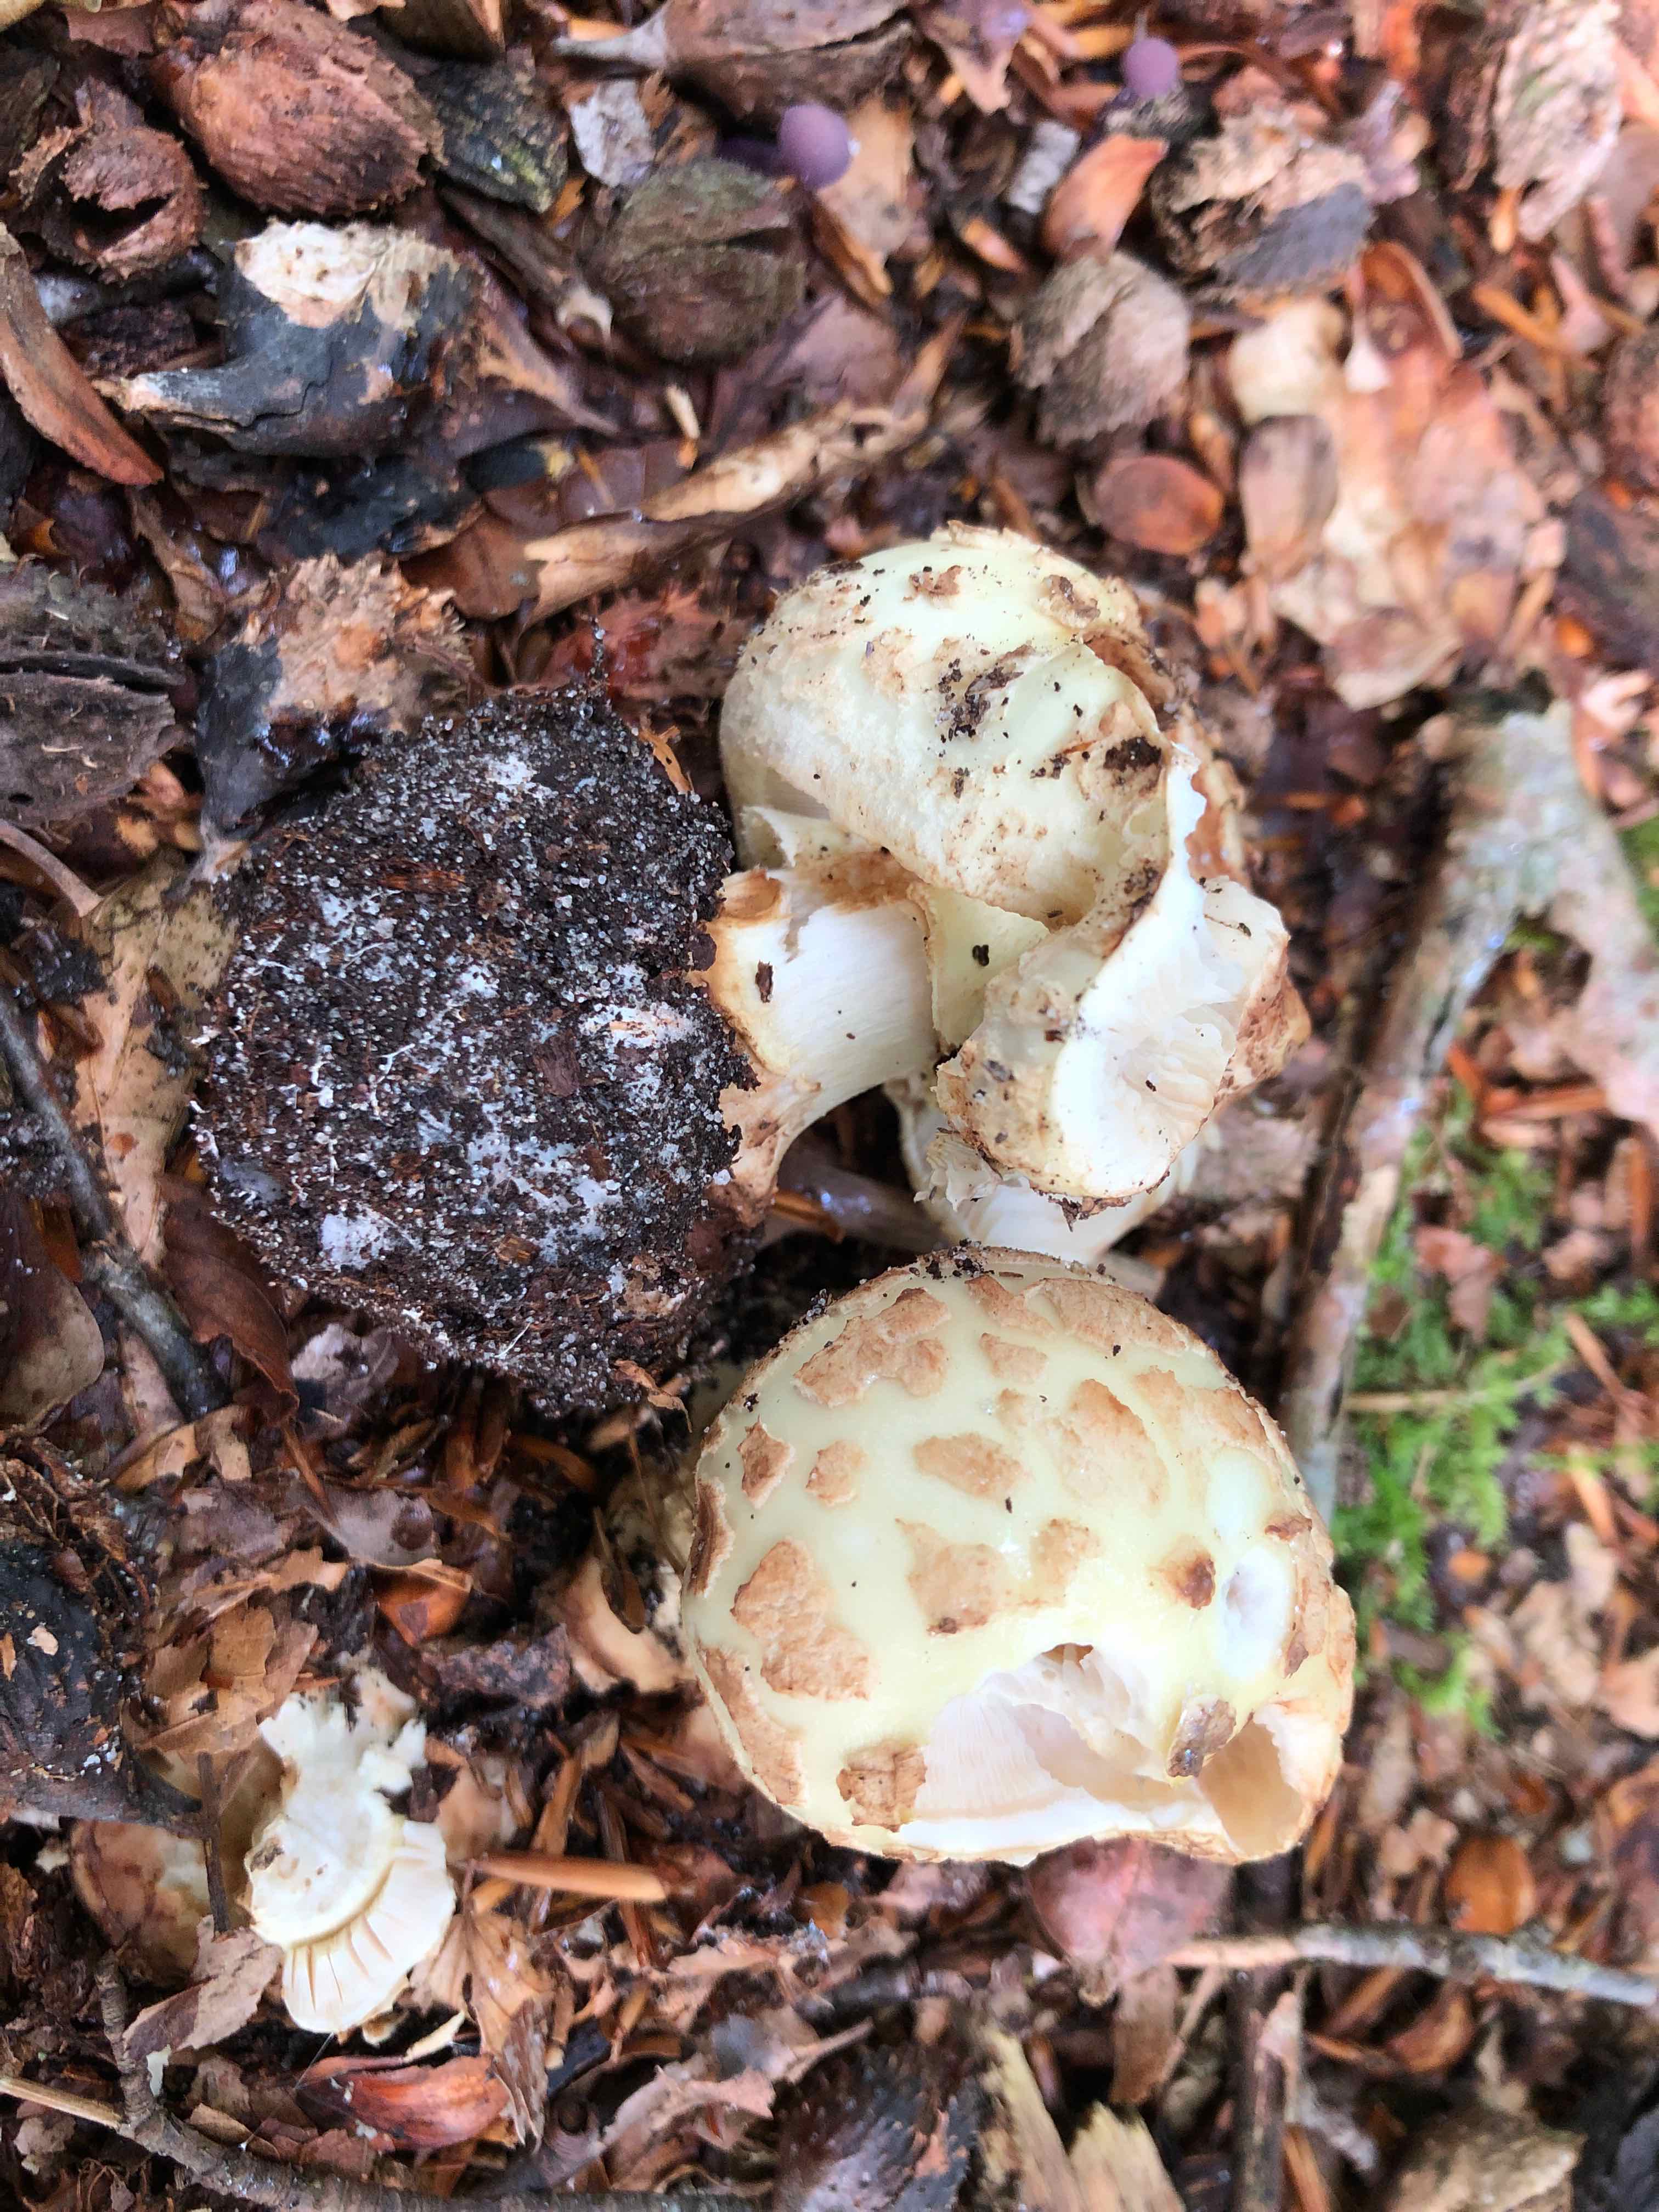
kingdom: Fungi
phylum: Basidiomycota
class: Agaricomycetes
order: Agaricales
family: Amanitaceae
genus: Amanita
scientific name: Amanita citrina
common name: kugleknoldet fluesvamp
